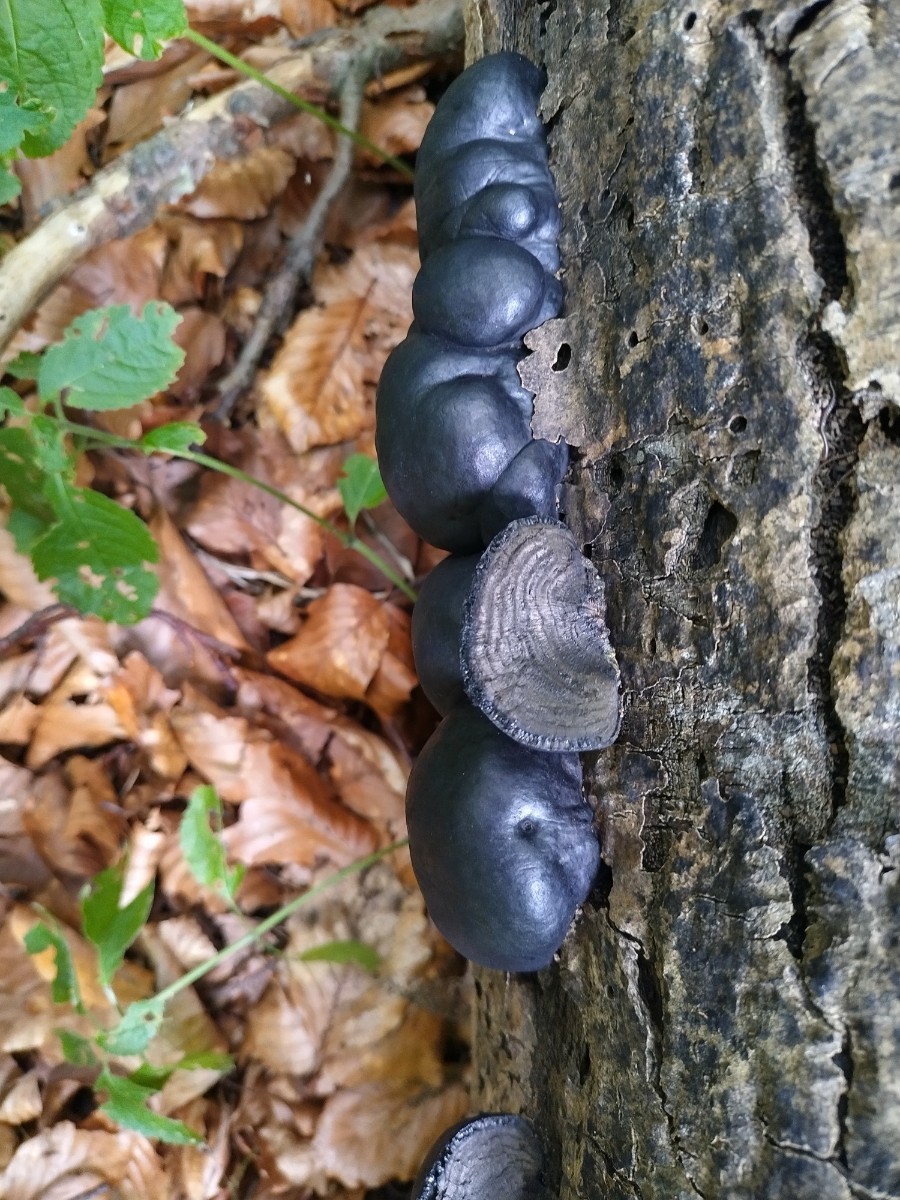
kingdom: Fungi
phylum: Ascomycota
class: Sordariomycetes
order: Xylariales
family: Hypoxylaceae
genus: Daldinia
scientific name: Daldinia concentrica
